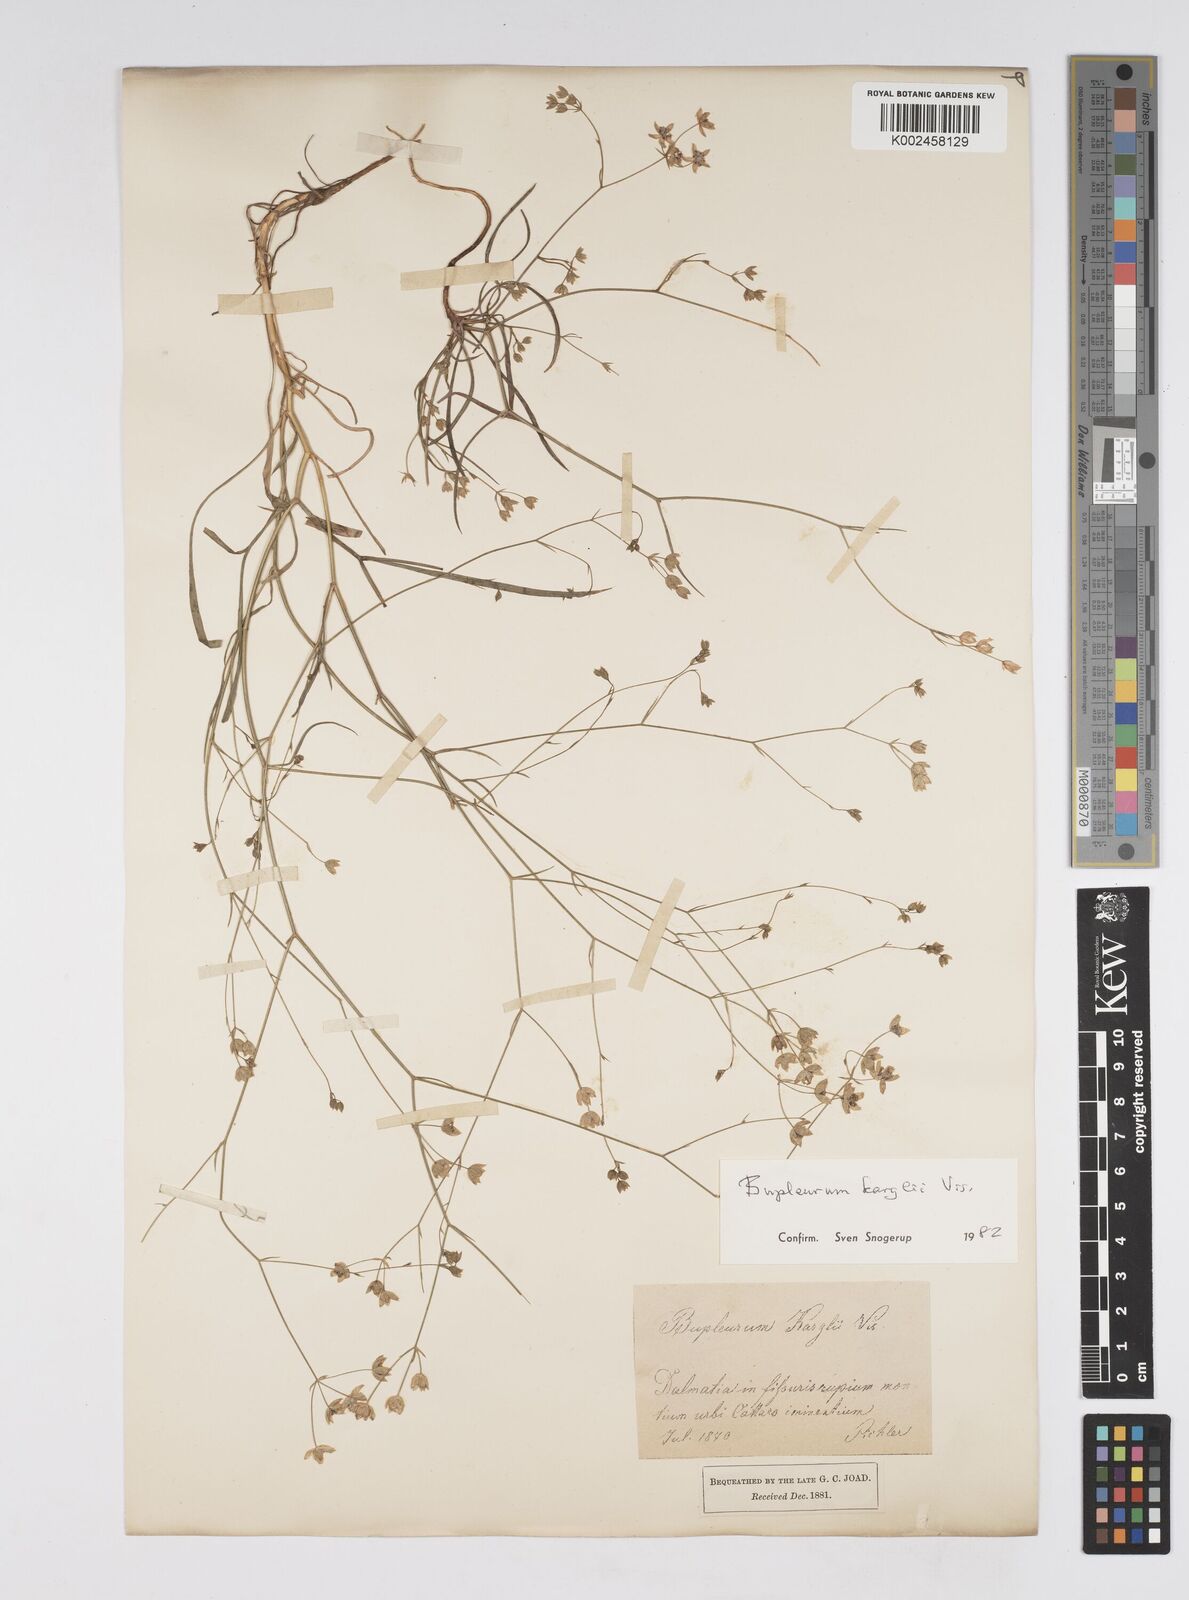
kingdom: Plantae
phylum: Tracheophyta
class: Magnoliopsida
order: Apiales
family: Apiaceae
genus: Bupleurum
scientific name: Bupleurum karglii
